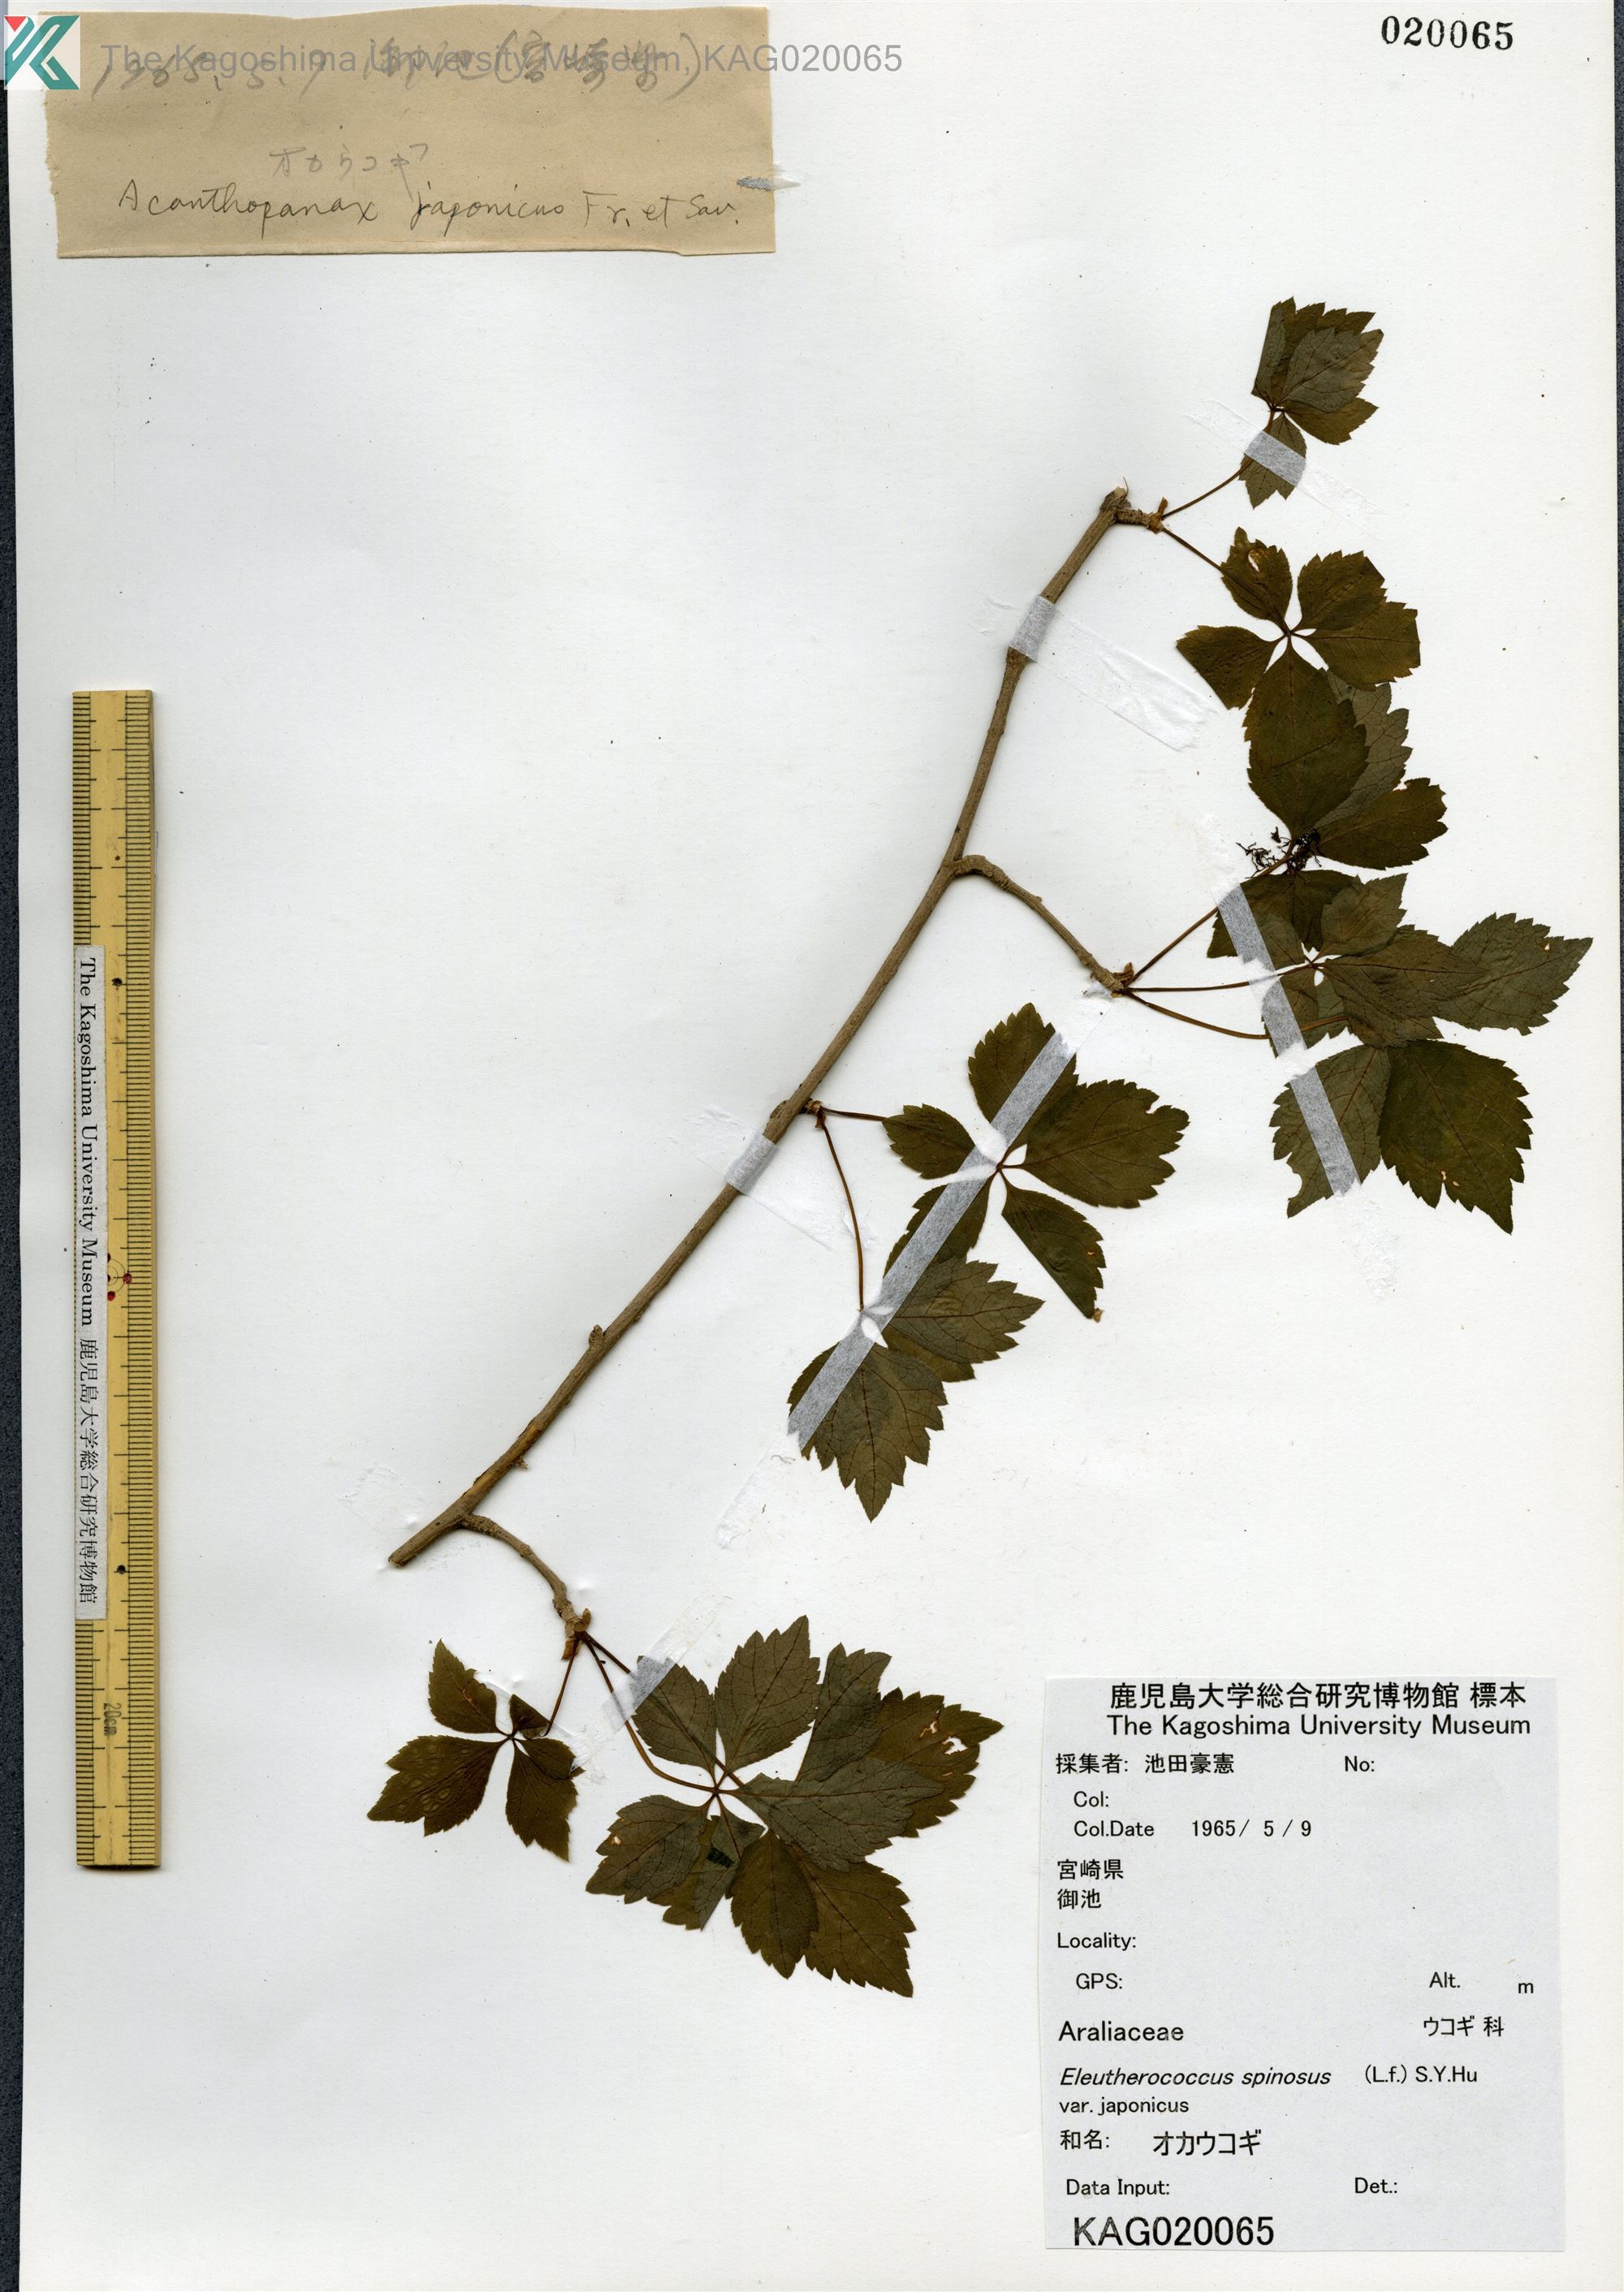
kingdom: Plantae
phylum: Tracheophyta
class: Magnoliopsida
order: Apiales
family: Araliaceae
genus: Eleutherococcus
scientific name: Eleutherococcus japonicus
